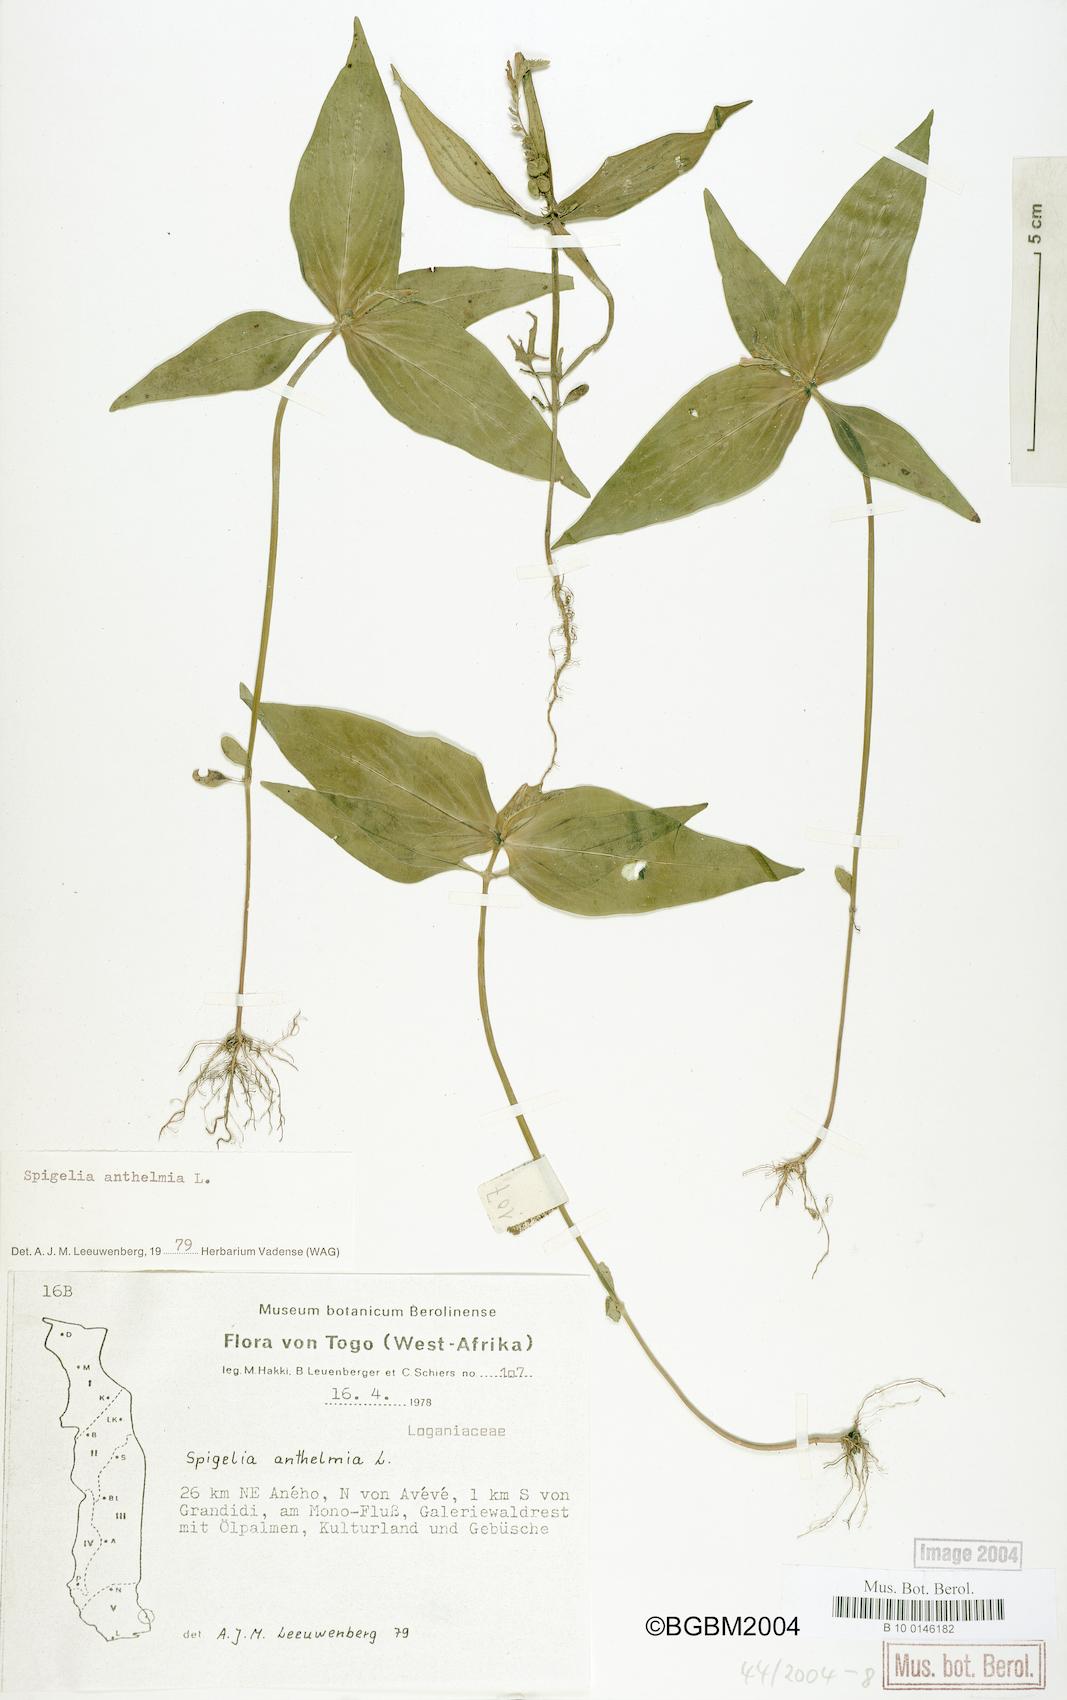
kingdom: Plantae
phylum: Tracheophyta
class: Magnoliopsida
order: Gentianales
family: Loganiaceae
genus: Spigelia
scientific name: Spigelia anthelmia
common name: West indian-pink
